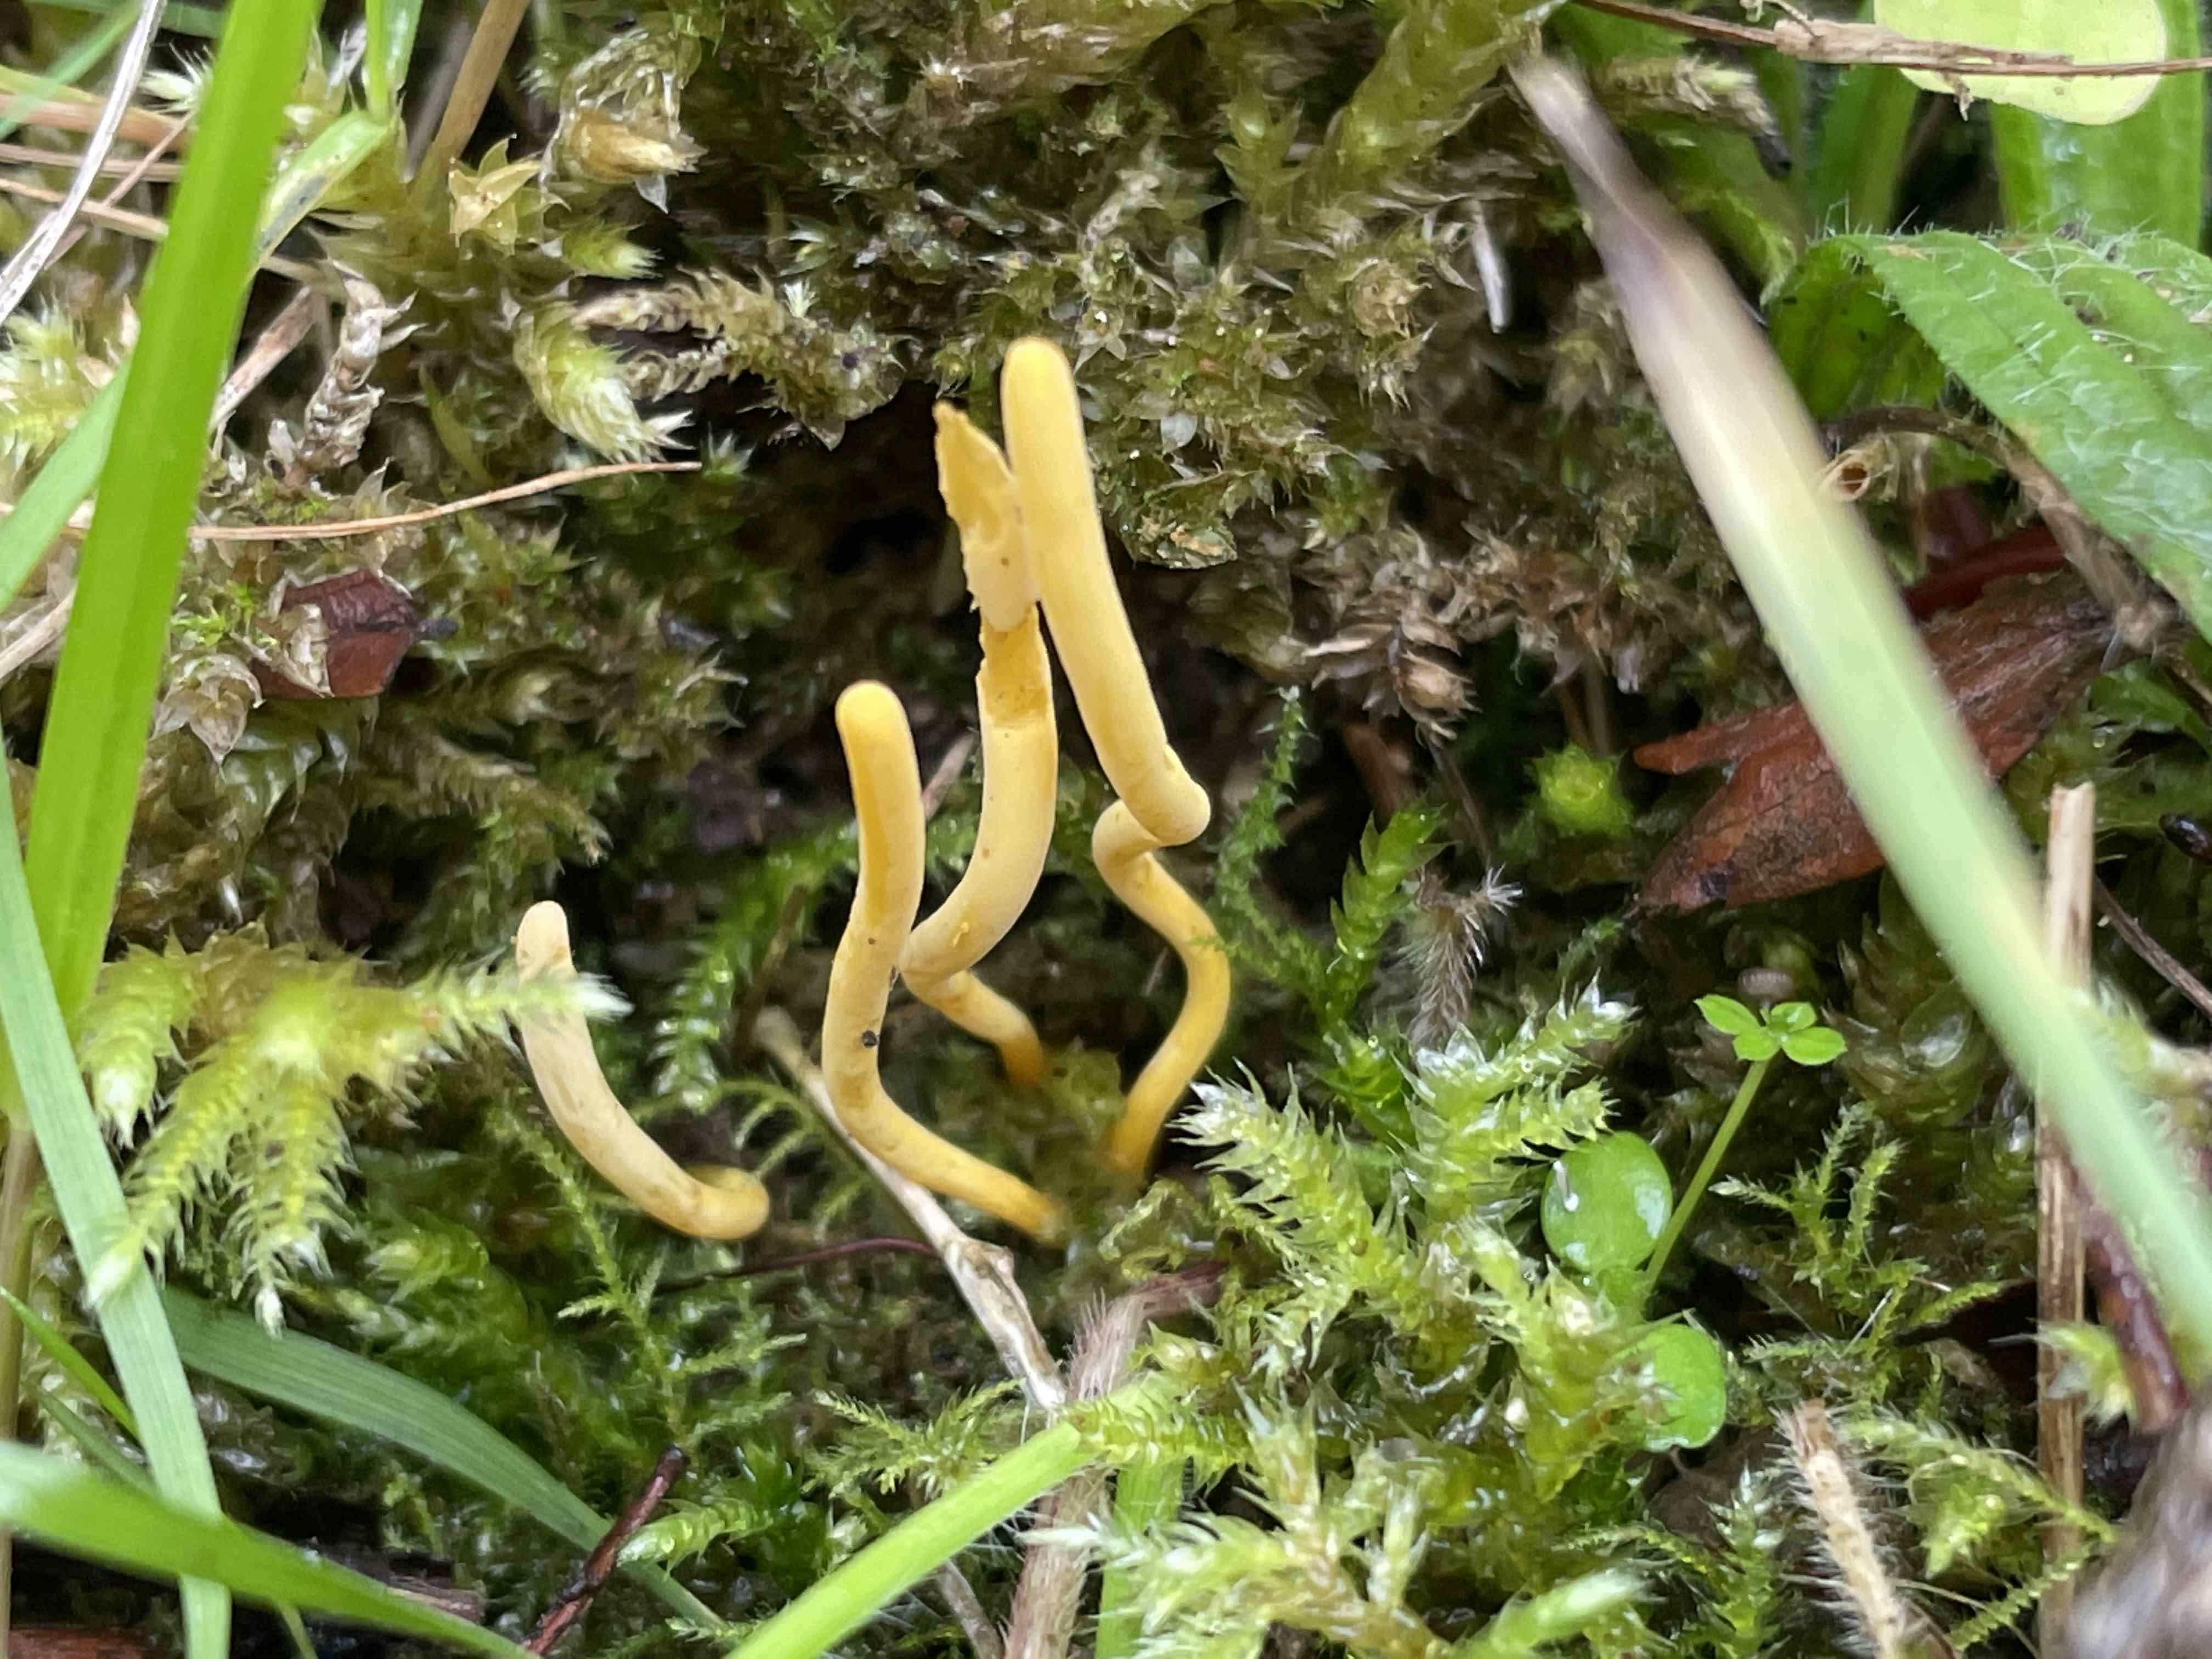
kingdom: Fungi
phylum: Basidiomycota
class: Agaricomycetes
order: Agaricales
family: Clavariaceae
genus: Clavulinopsis
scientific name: Clavulinopsis
